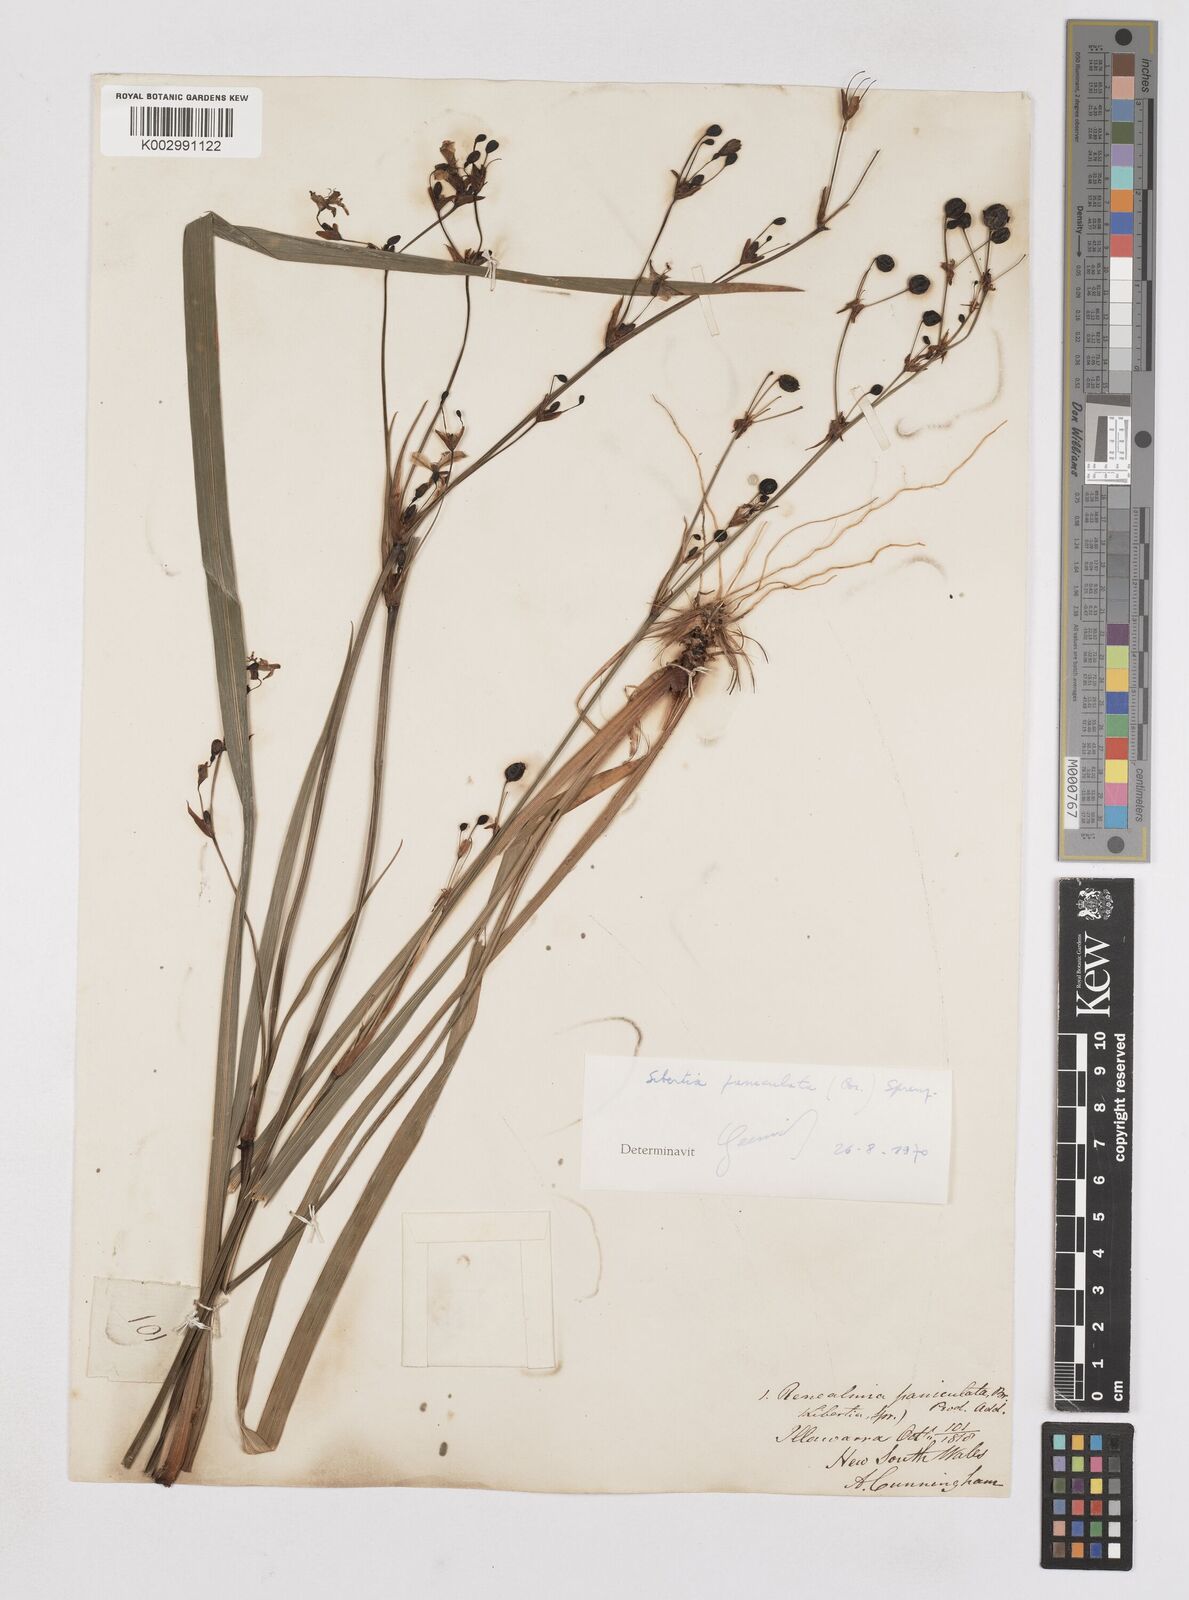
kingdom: Plantae
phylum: Tracheophyta
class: Liliopsida
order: Asparagales
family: Iridaceae
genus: Libertia
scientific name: Libertia paniculata
